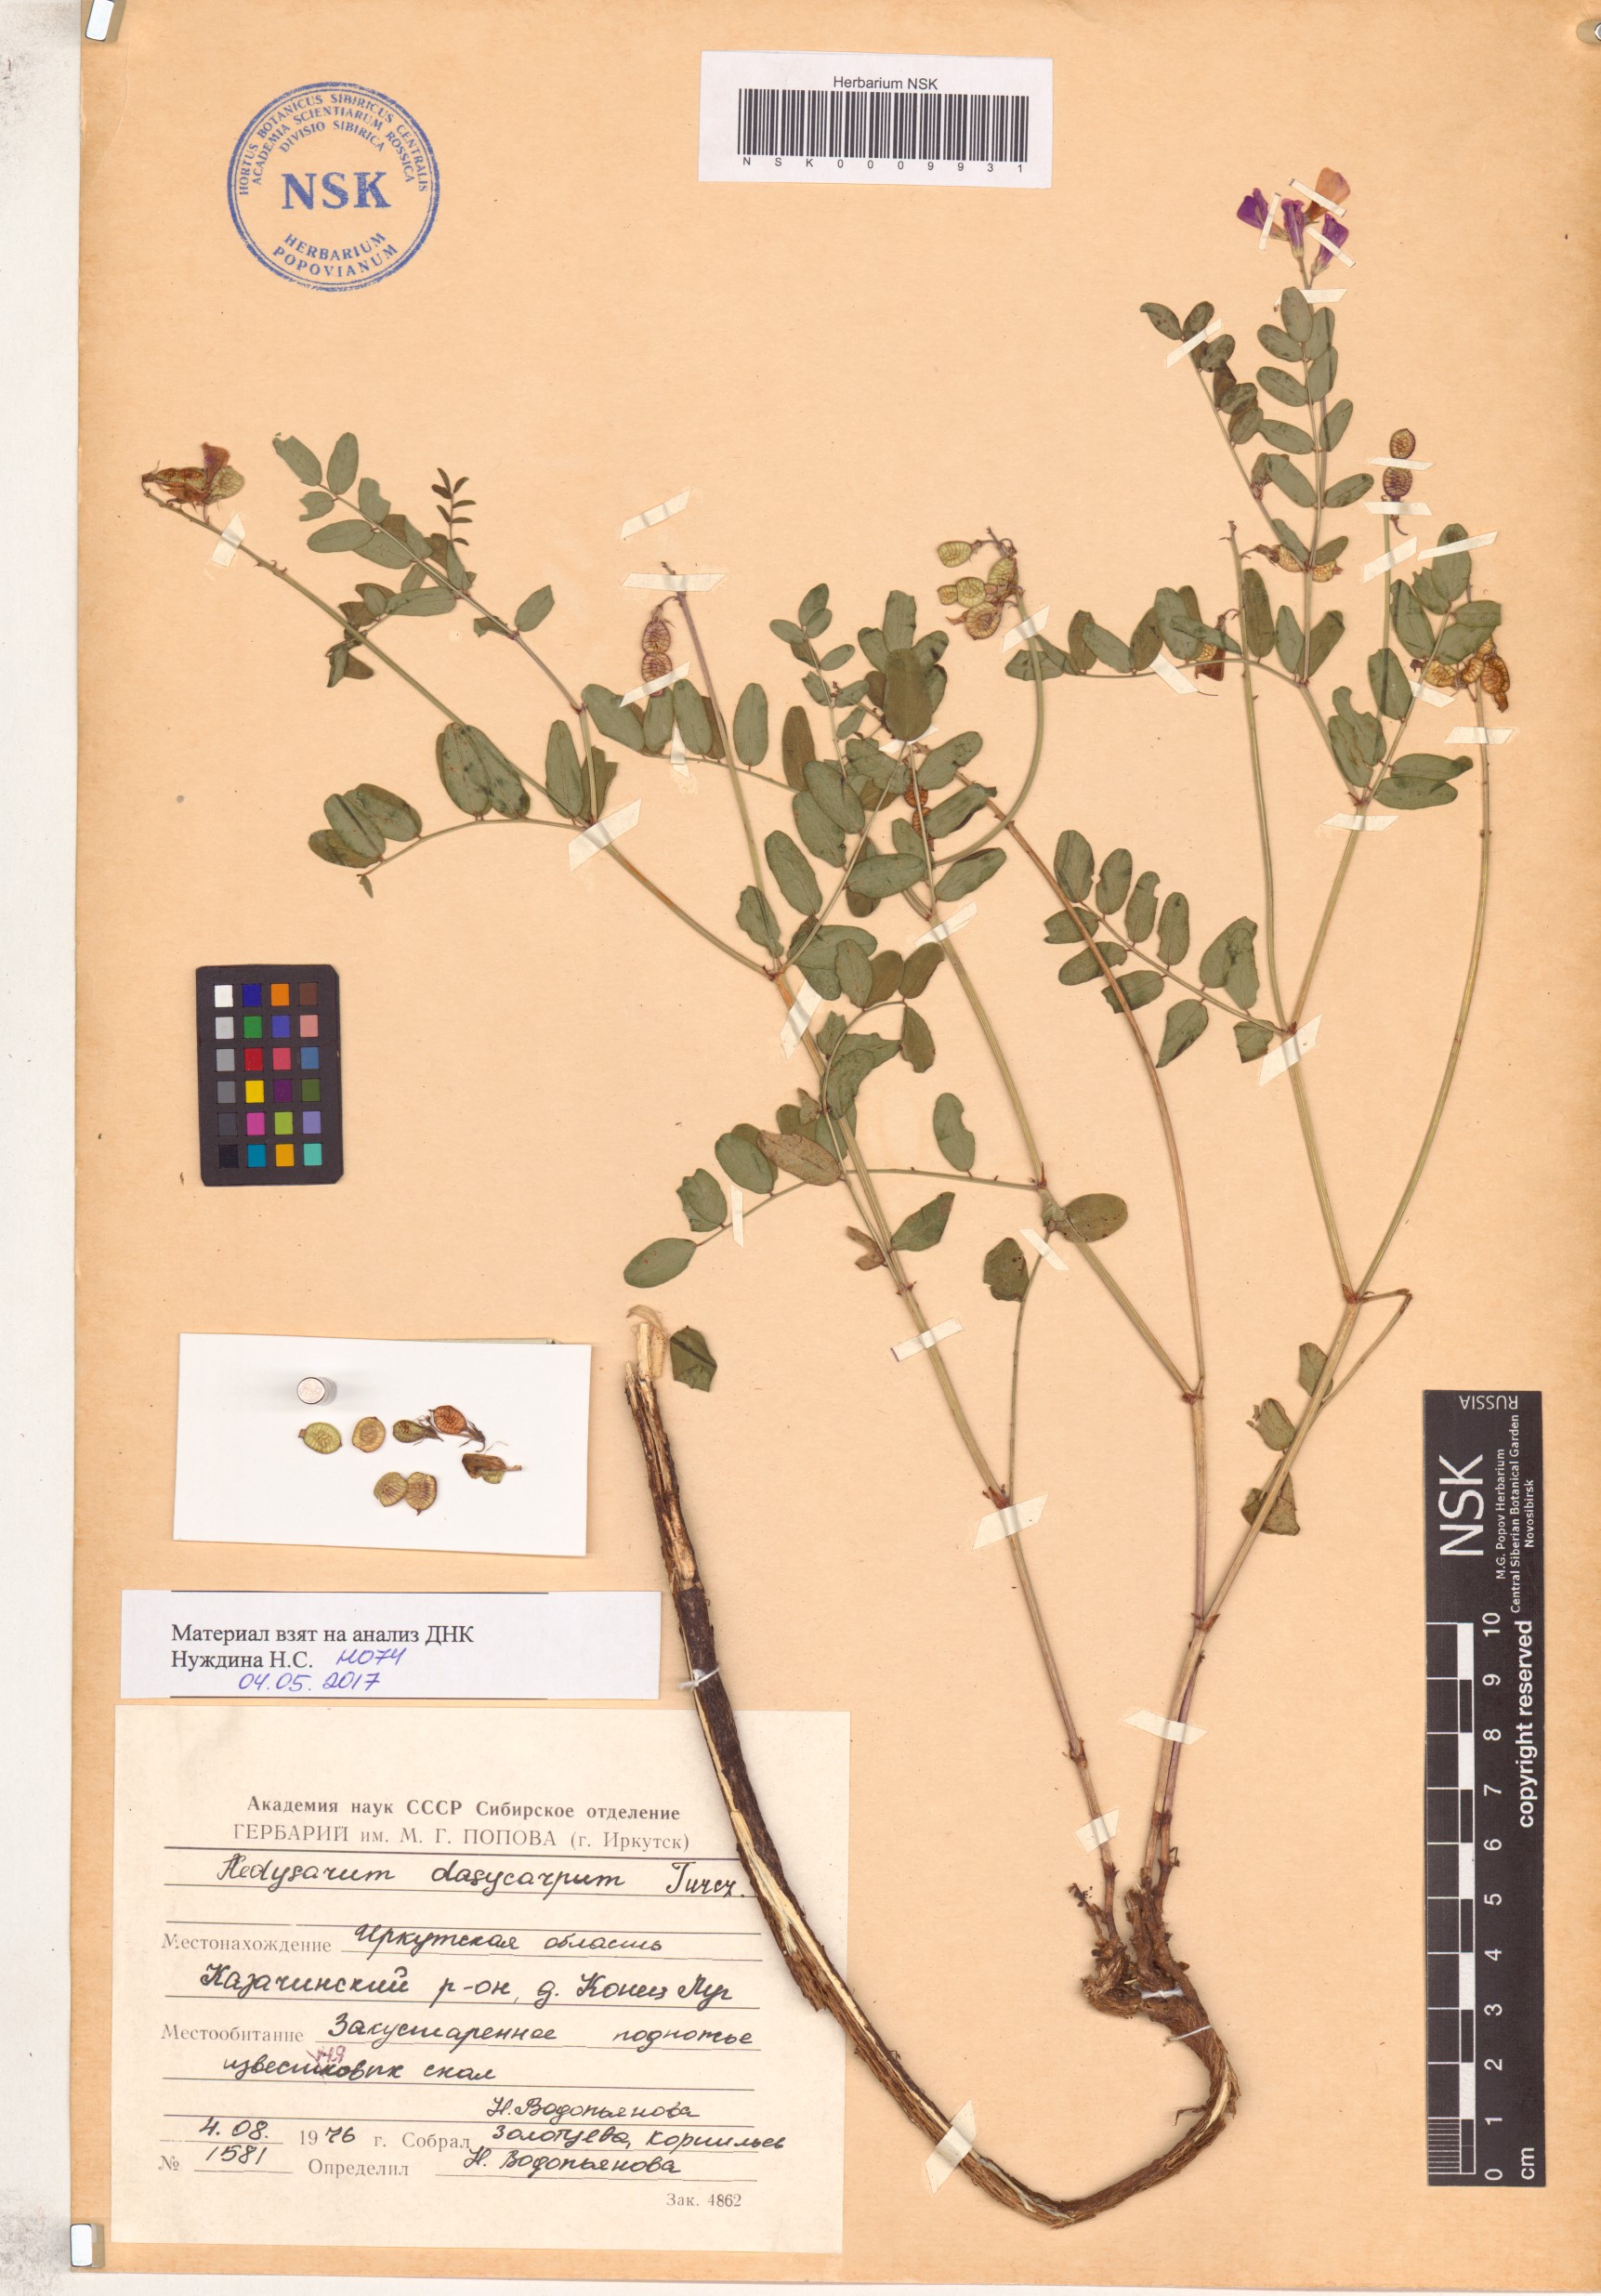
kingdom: Plantae
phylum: Tracheophyta
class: Magnoliopsida
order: Fabales
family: Fabaceae
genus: Hedysarum
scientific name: Hedysarum dasycarpum
